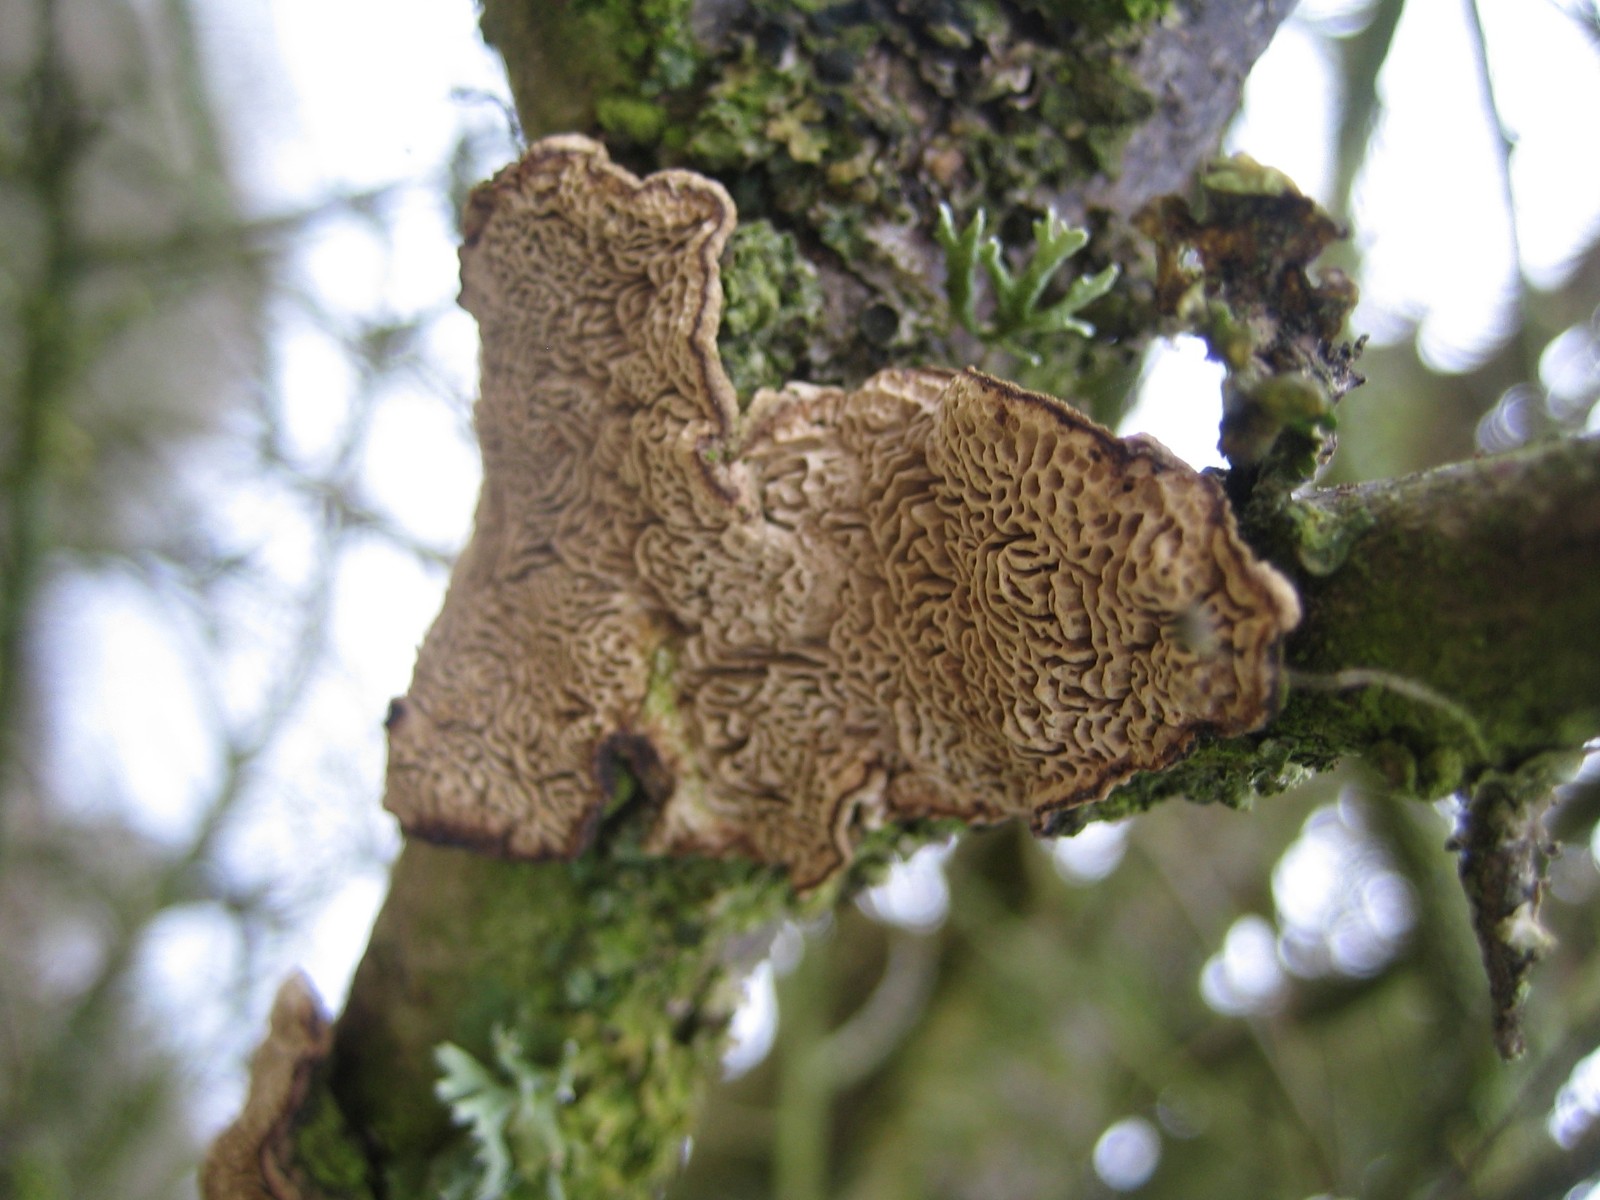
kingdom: Fungi
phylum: Basidiomycota
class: Agaricomycetes
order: Polyporales
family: Polyporaceae
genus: Podofomes
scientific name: Podofomes mollis
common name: blød begporesvamp
